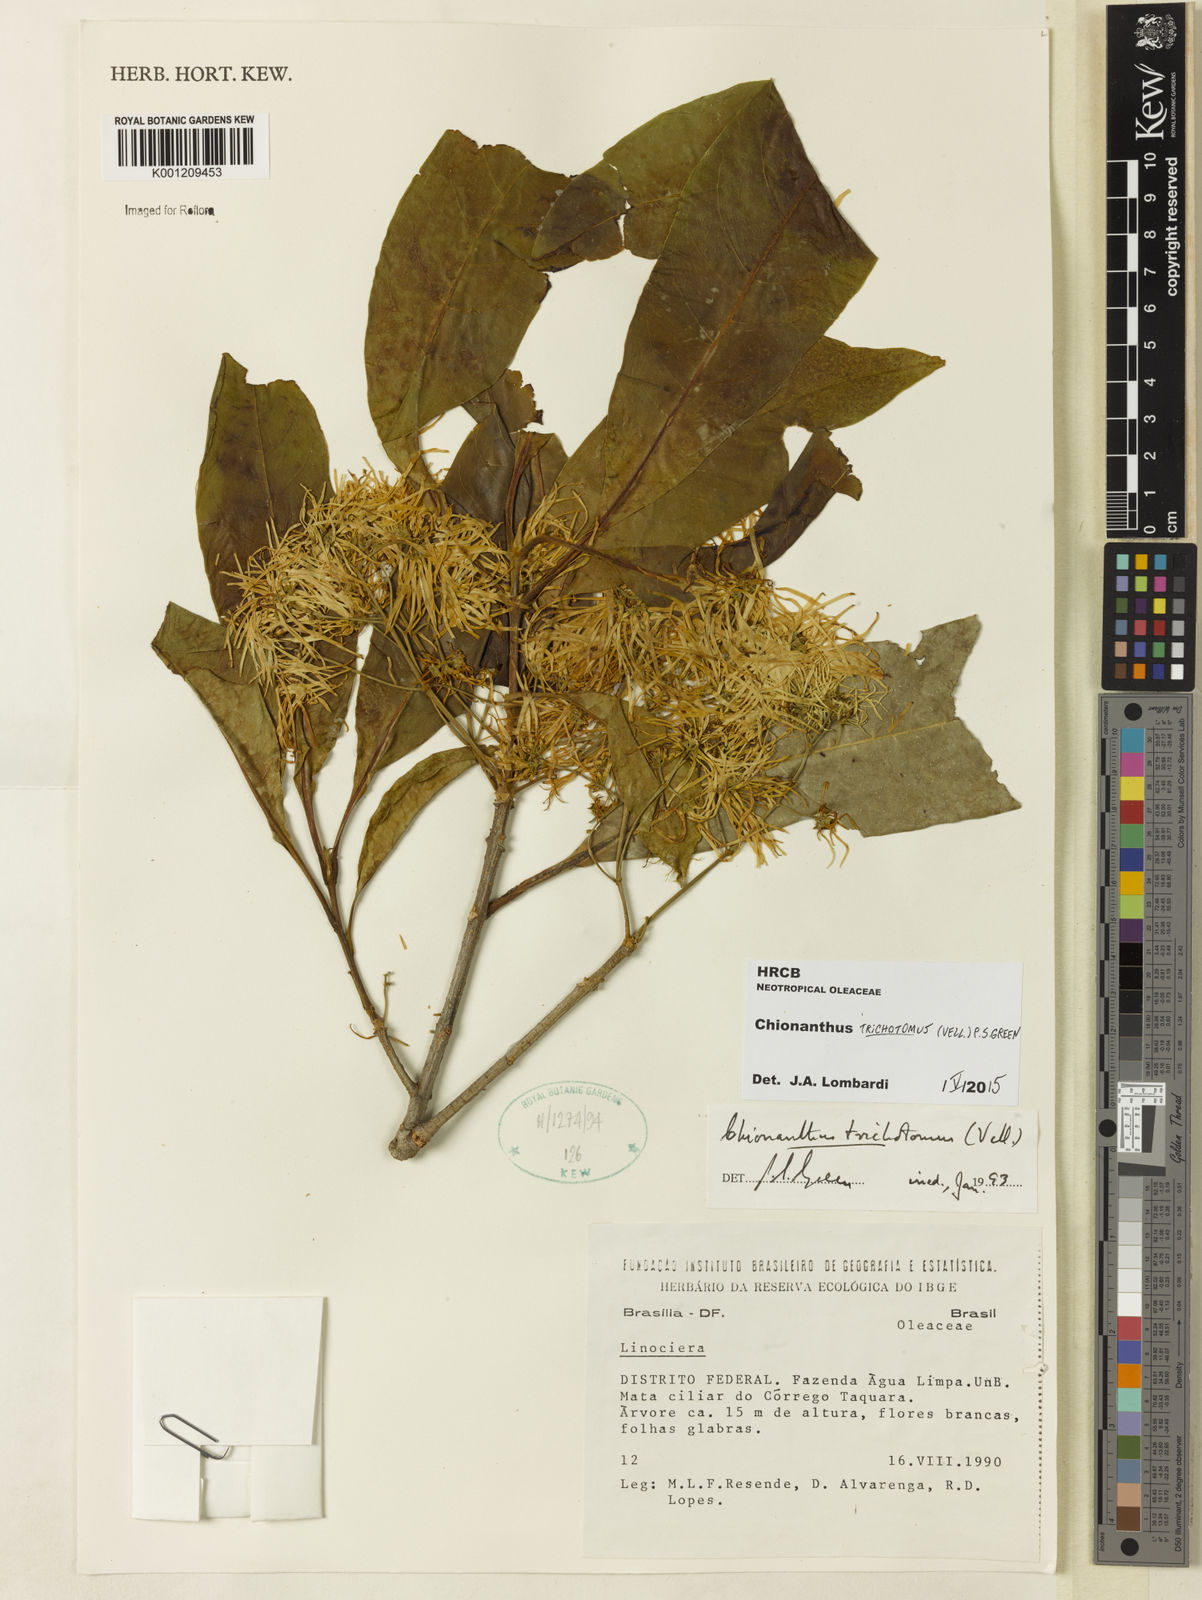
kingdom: Plantae
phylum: Tracheophyta
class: Magnoliopsida
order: Lamiales
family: Oleaceae
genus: Chionanthus
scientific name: Chionanthus trichotomus
